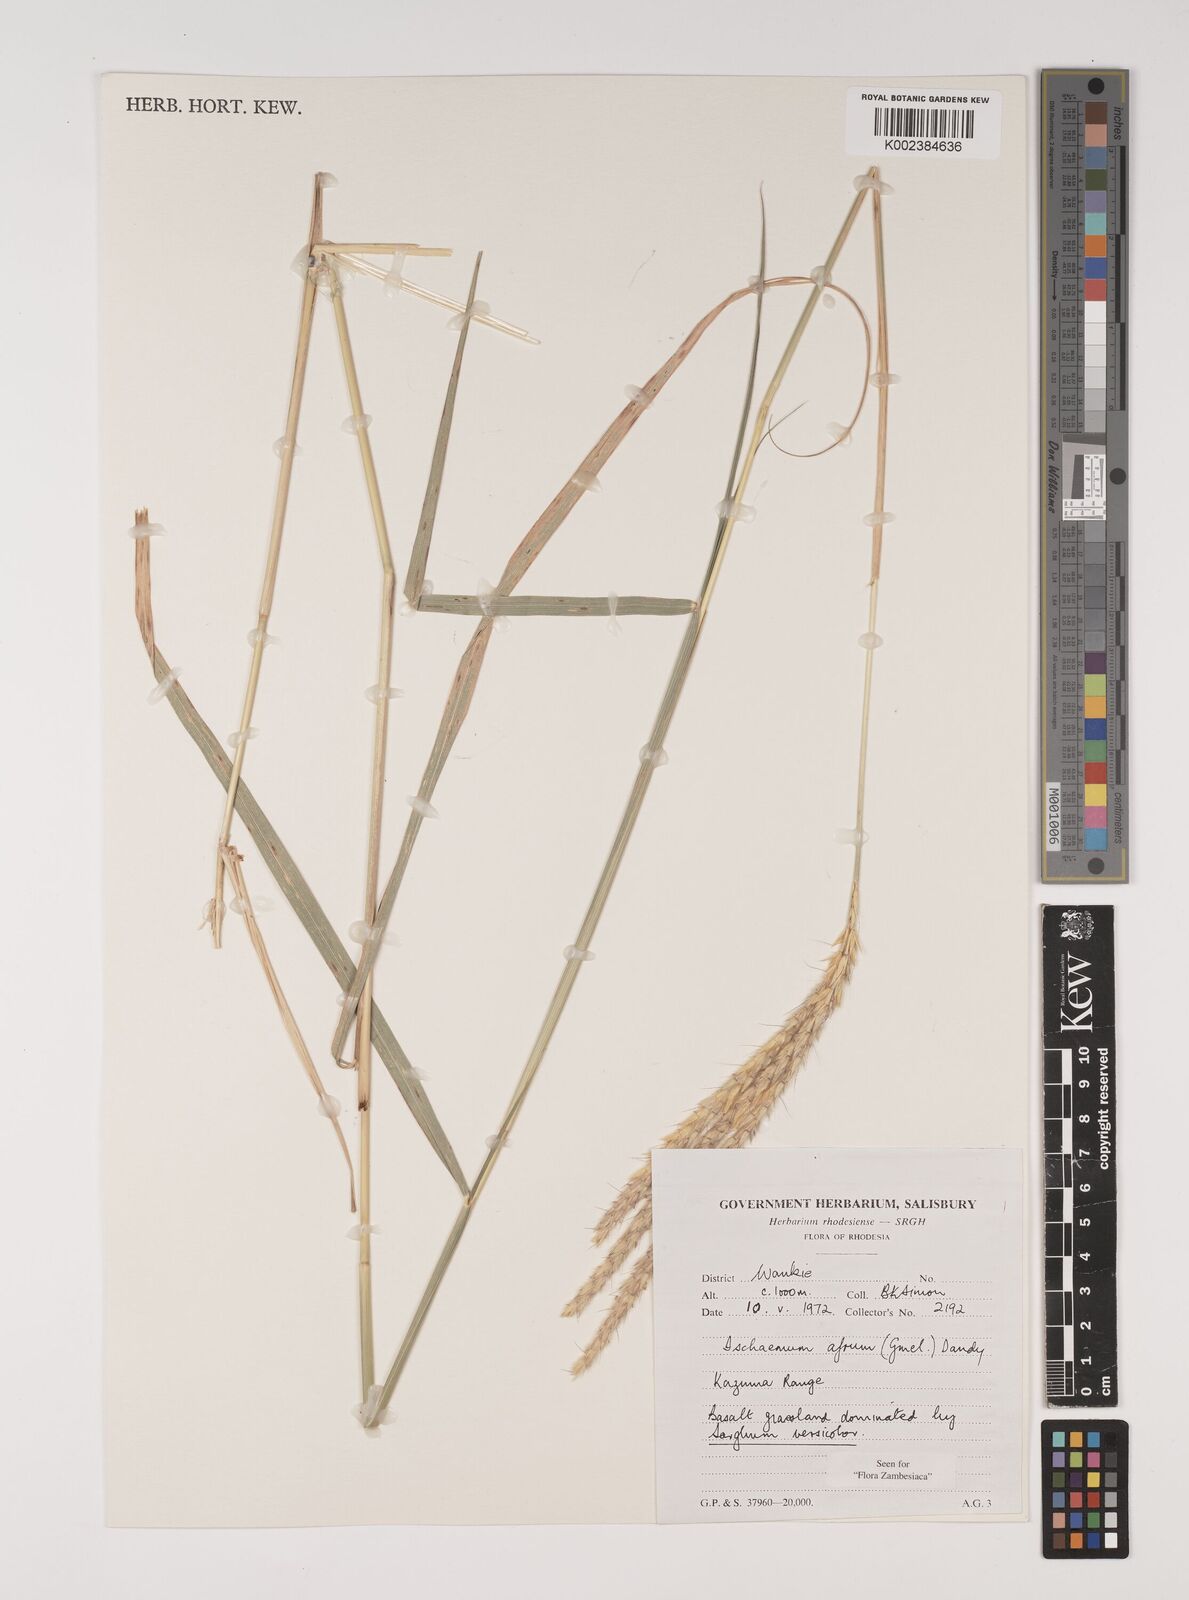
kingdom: Plantae
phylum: Tracheophyta
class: Liliopsida
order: Poales
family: Poaceae
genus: Ischaemum
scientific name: Ischaemum afrum
